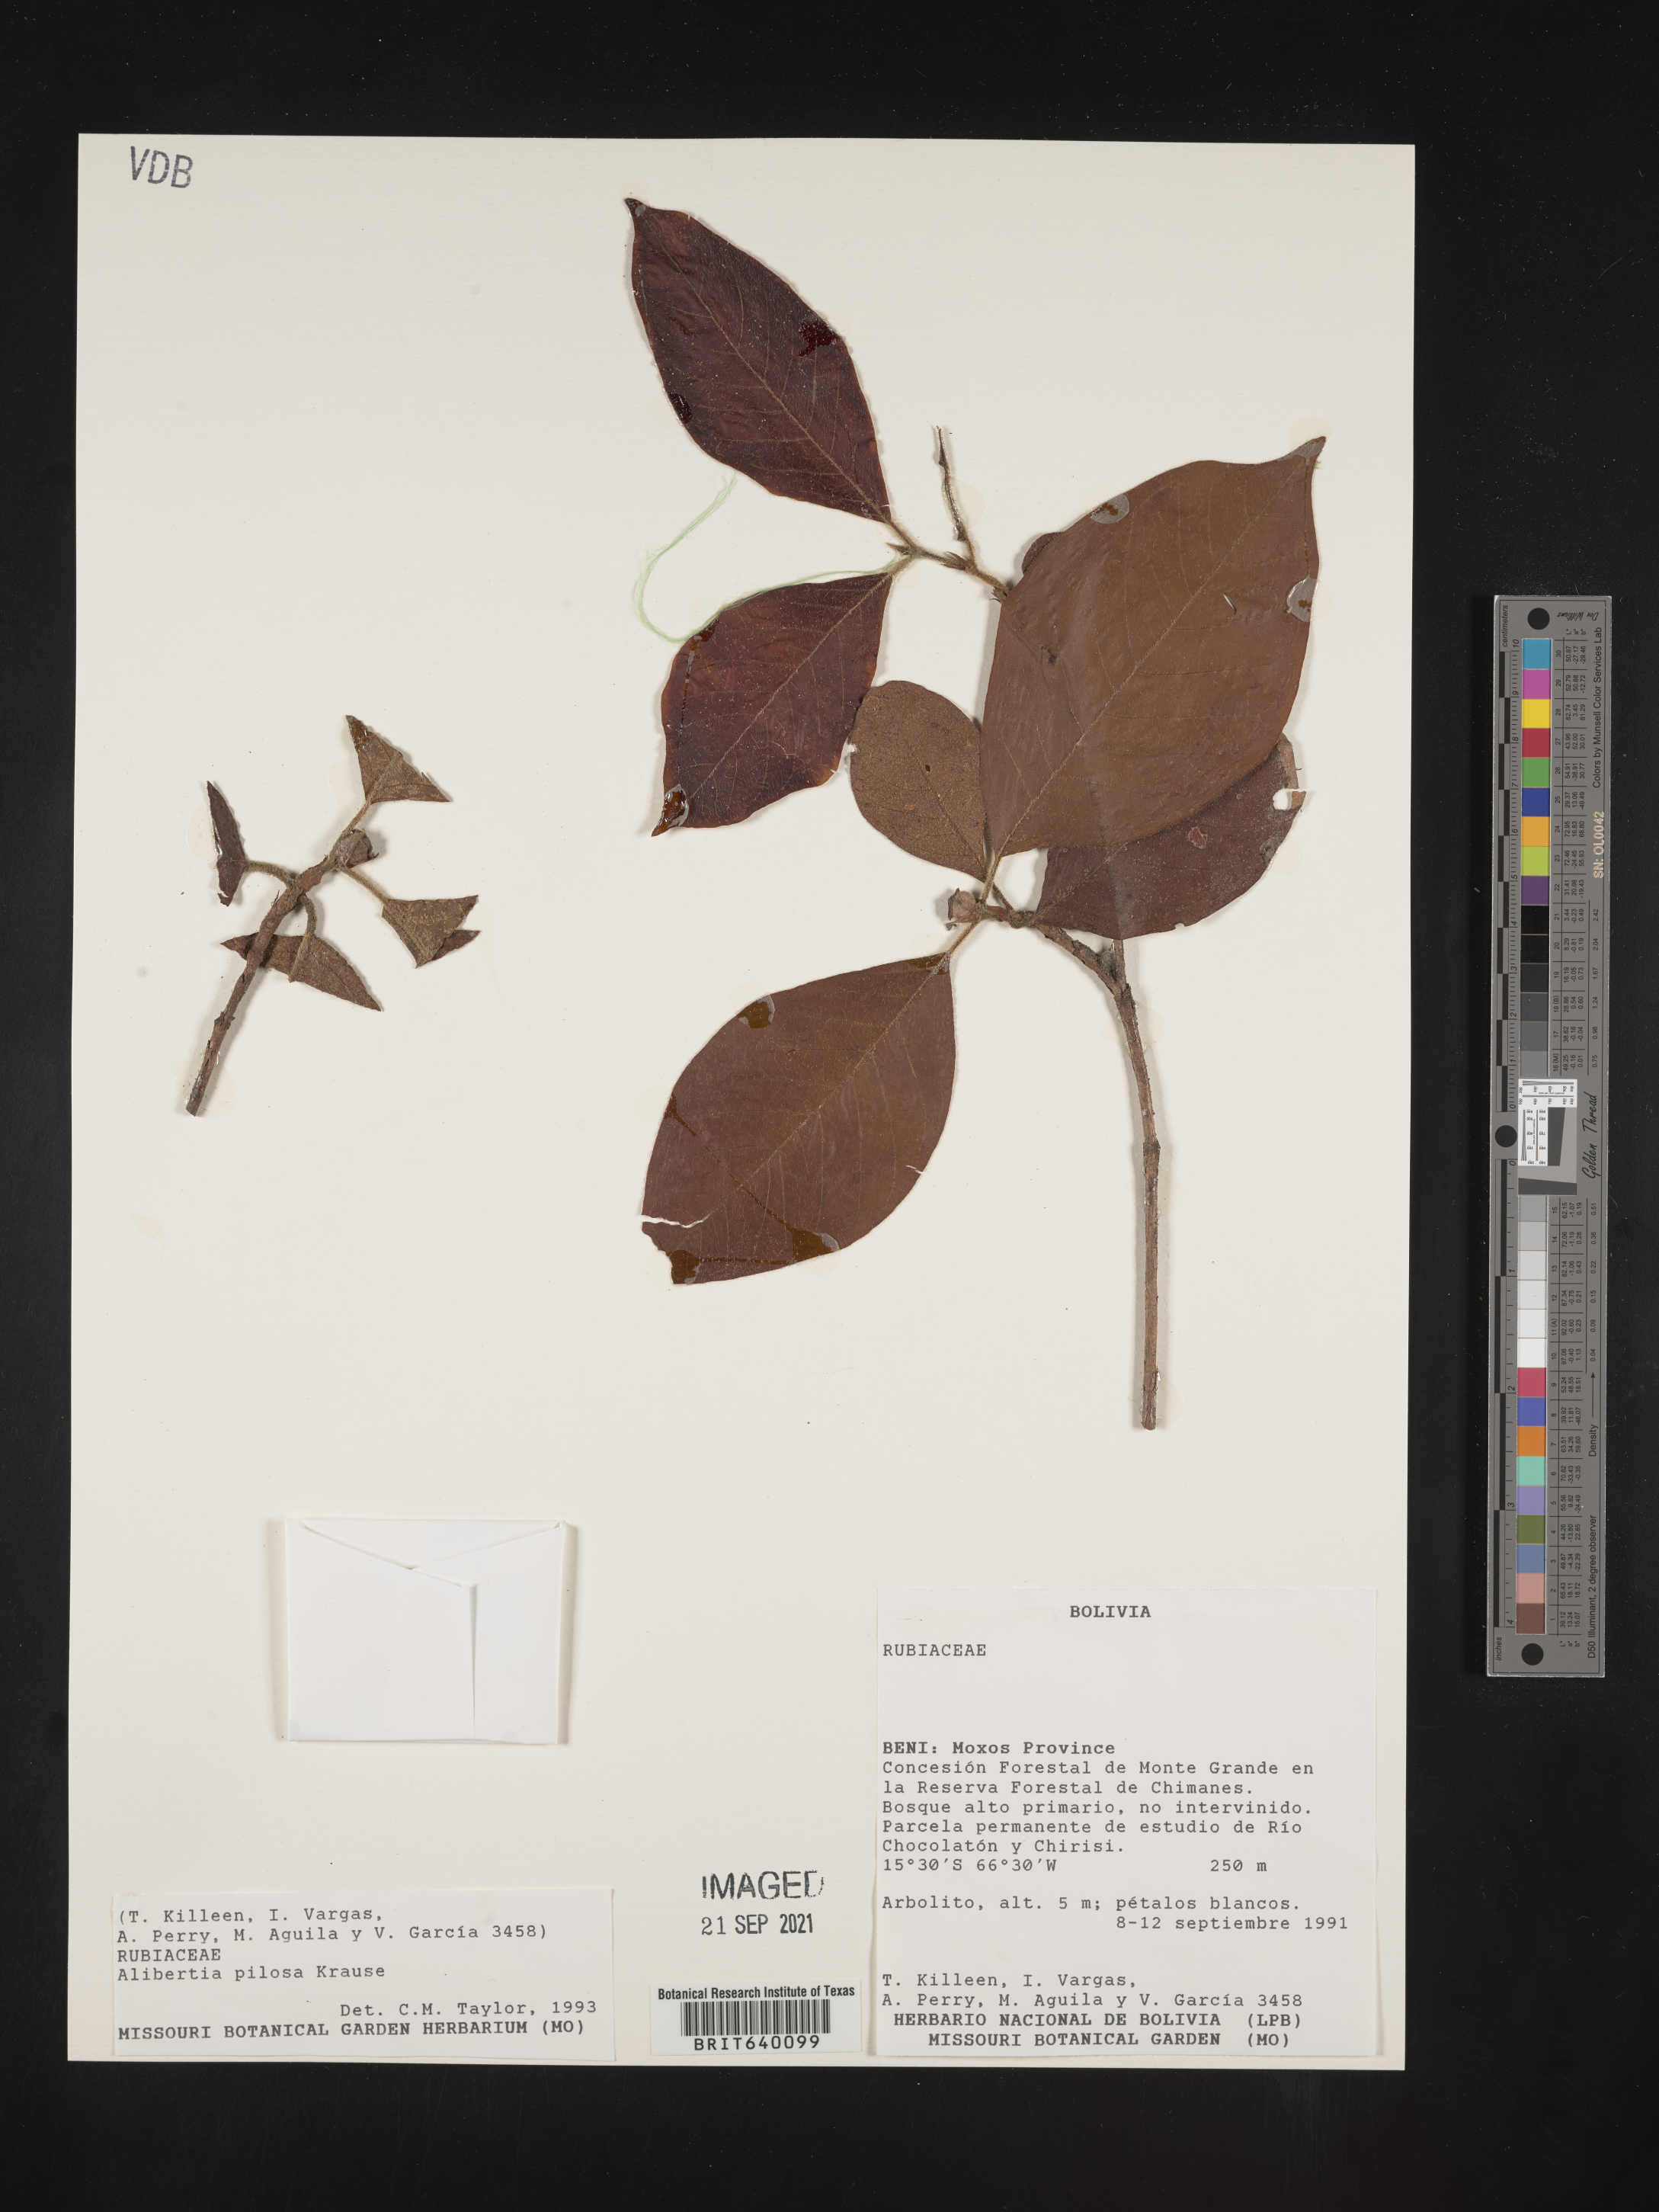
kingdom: Plantae
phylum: Tracheophyta
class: Magnoliopsida
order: Gentianales
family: Rubiaceae
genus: Alibertia
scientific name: Alibertia
